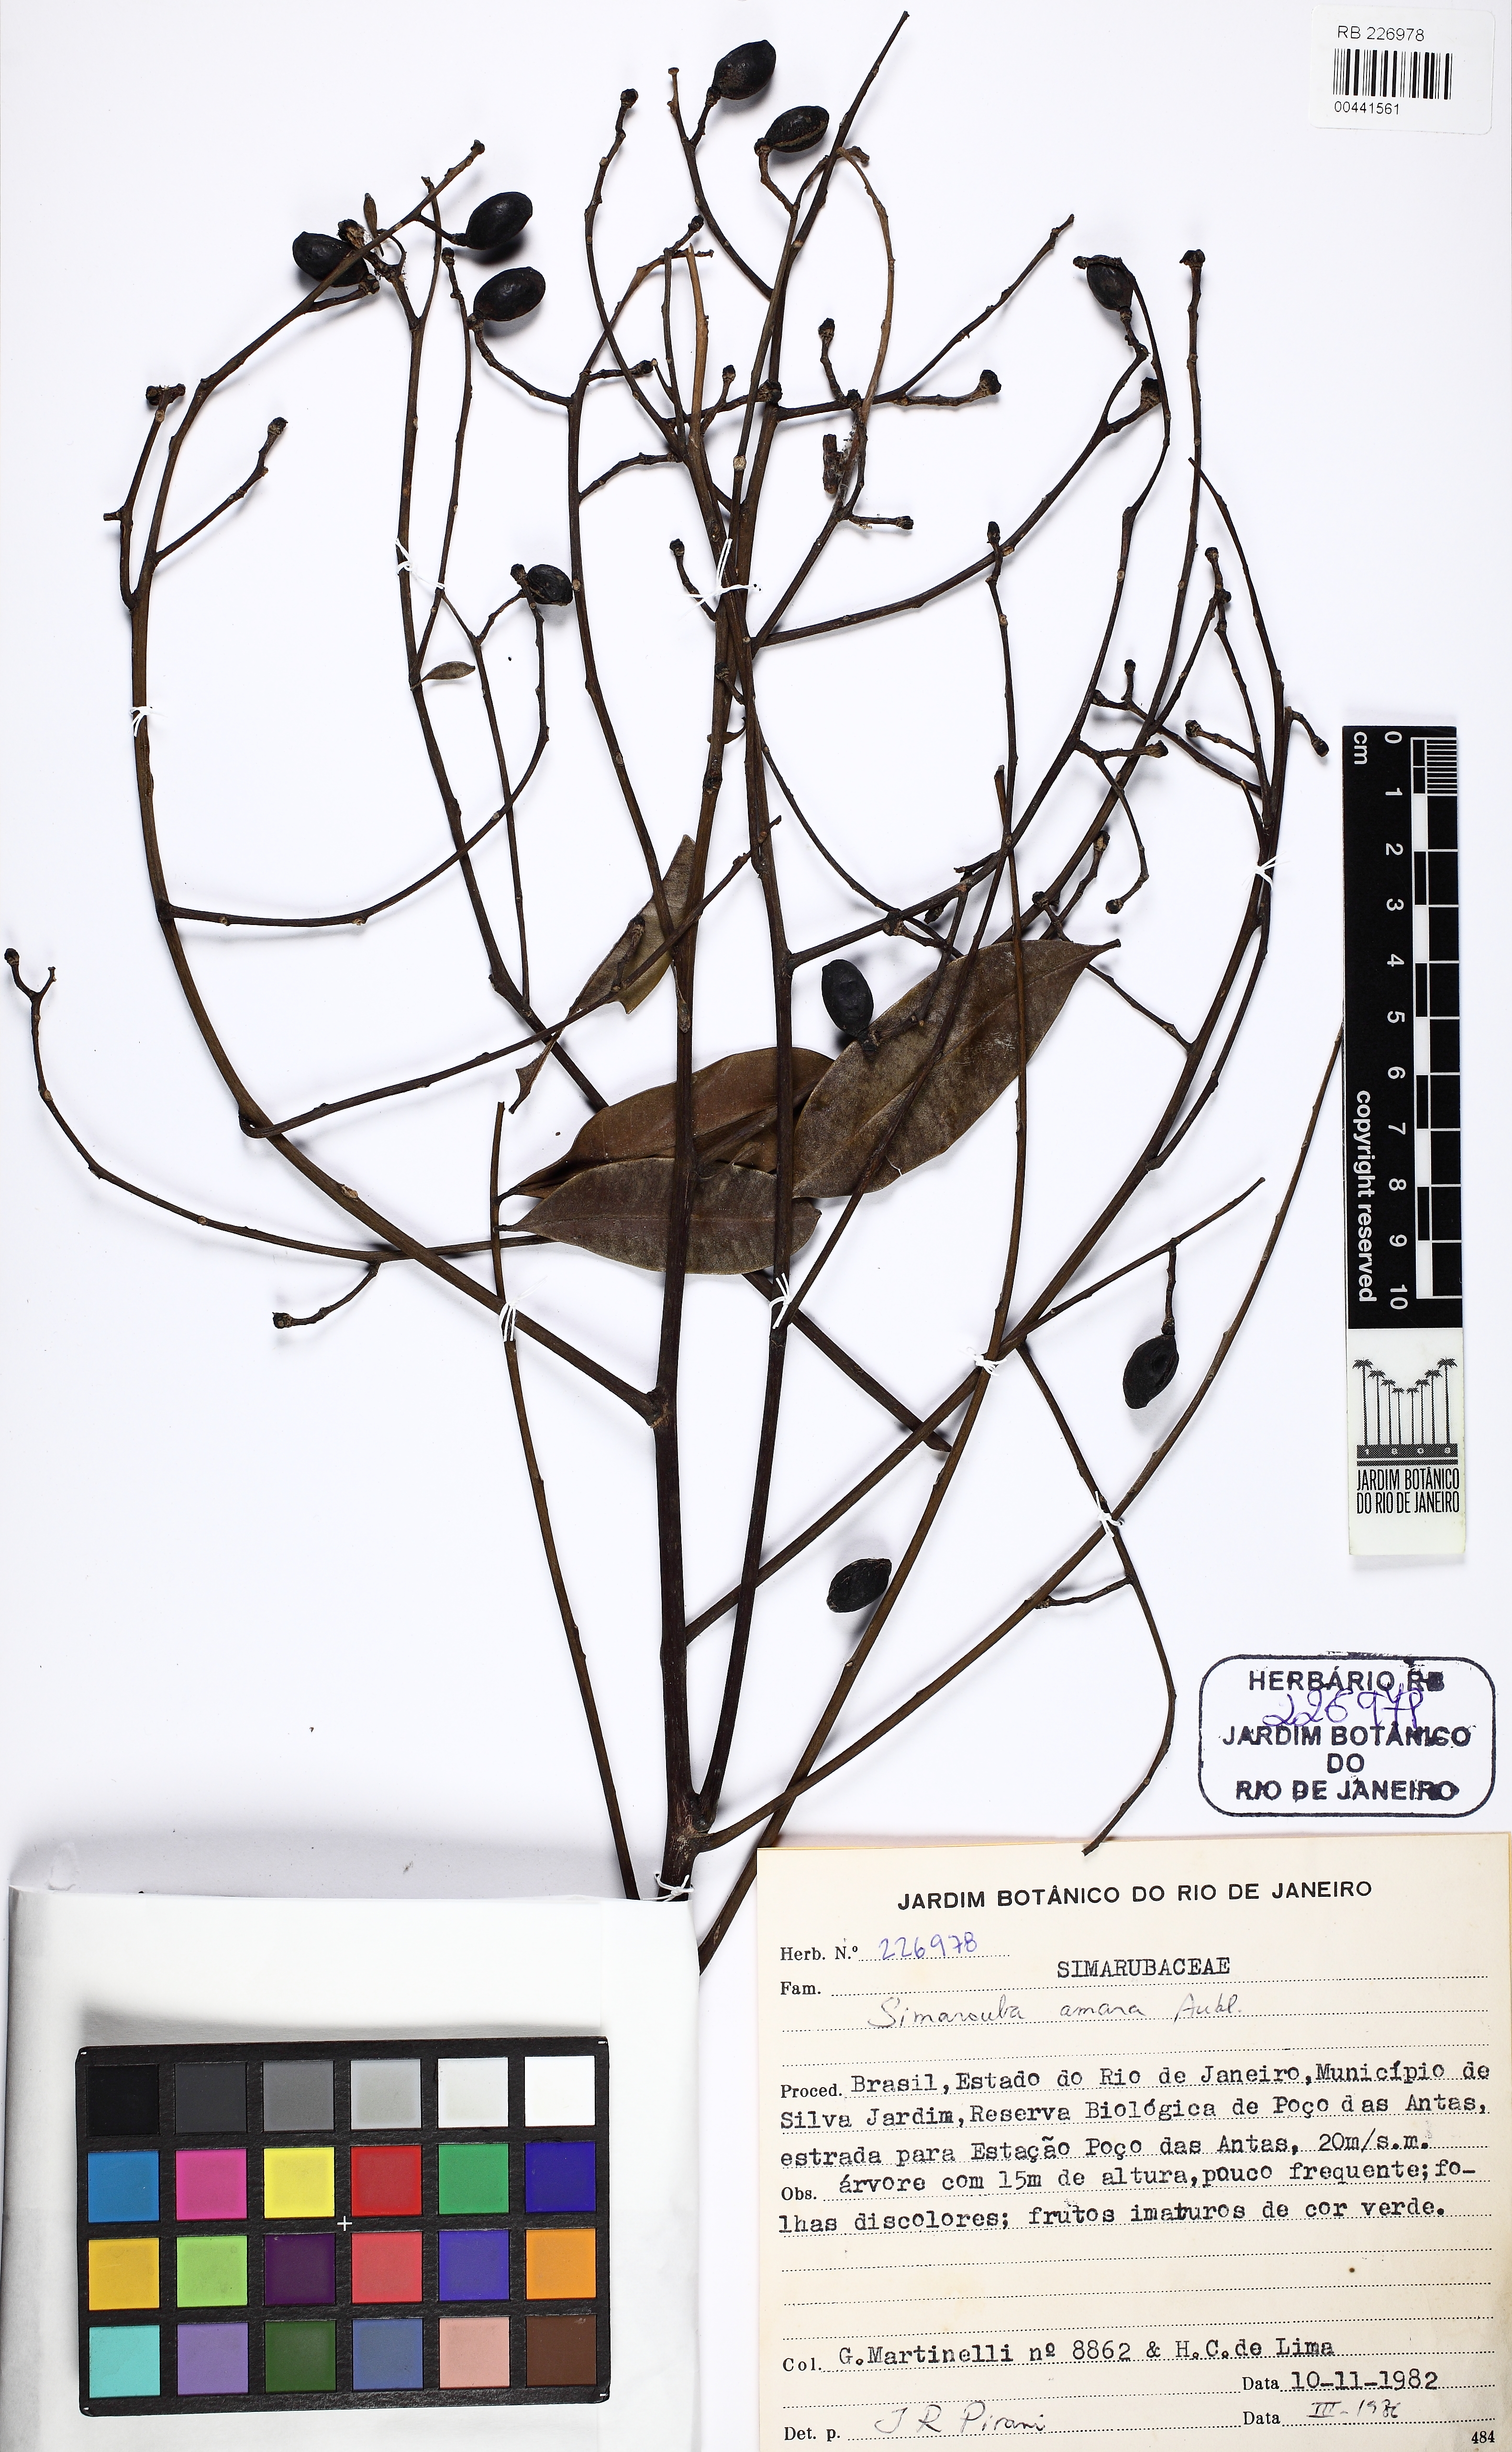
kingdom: Plantae
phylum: Tracheophyta
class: Magnoliopsida
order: Sapindales
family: Simaroubaceae
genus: Simarouba
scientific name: Simarouba amara
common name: Bitterwood
